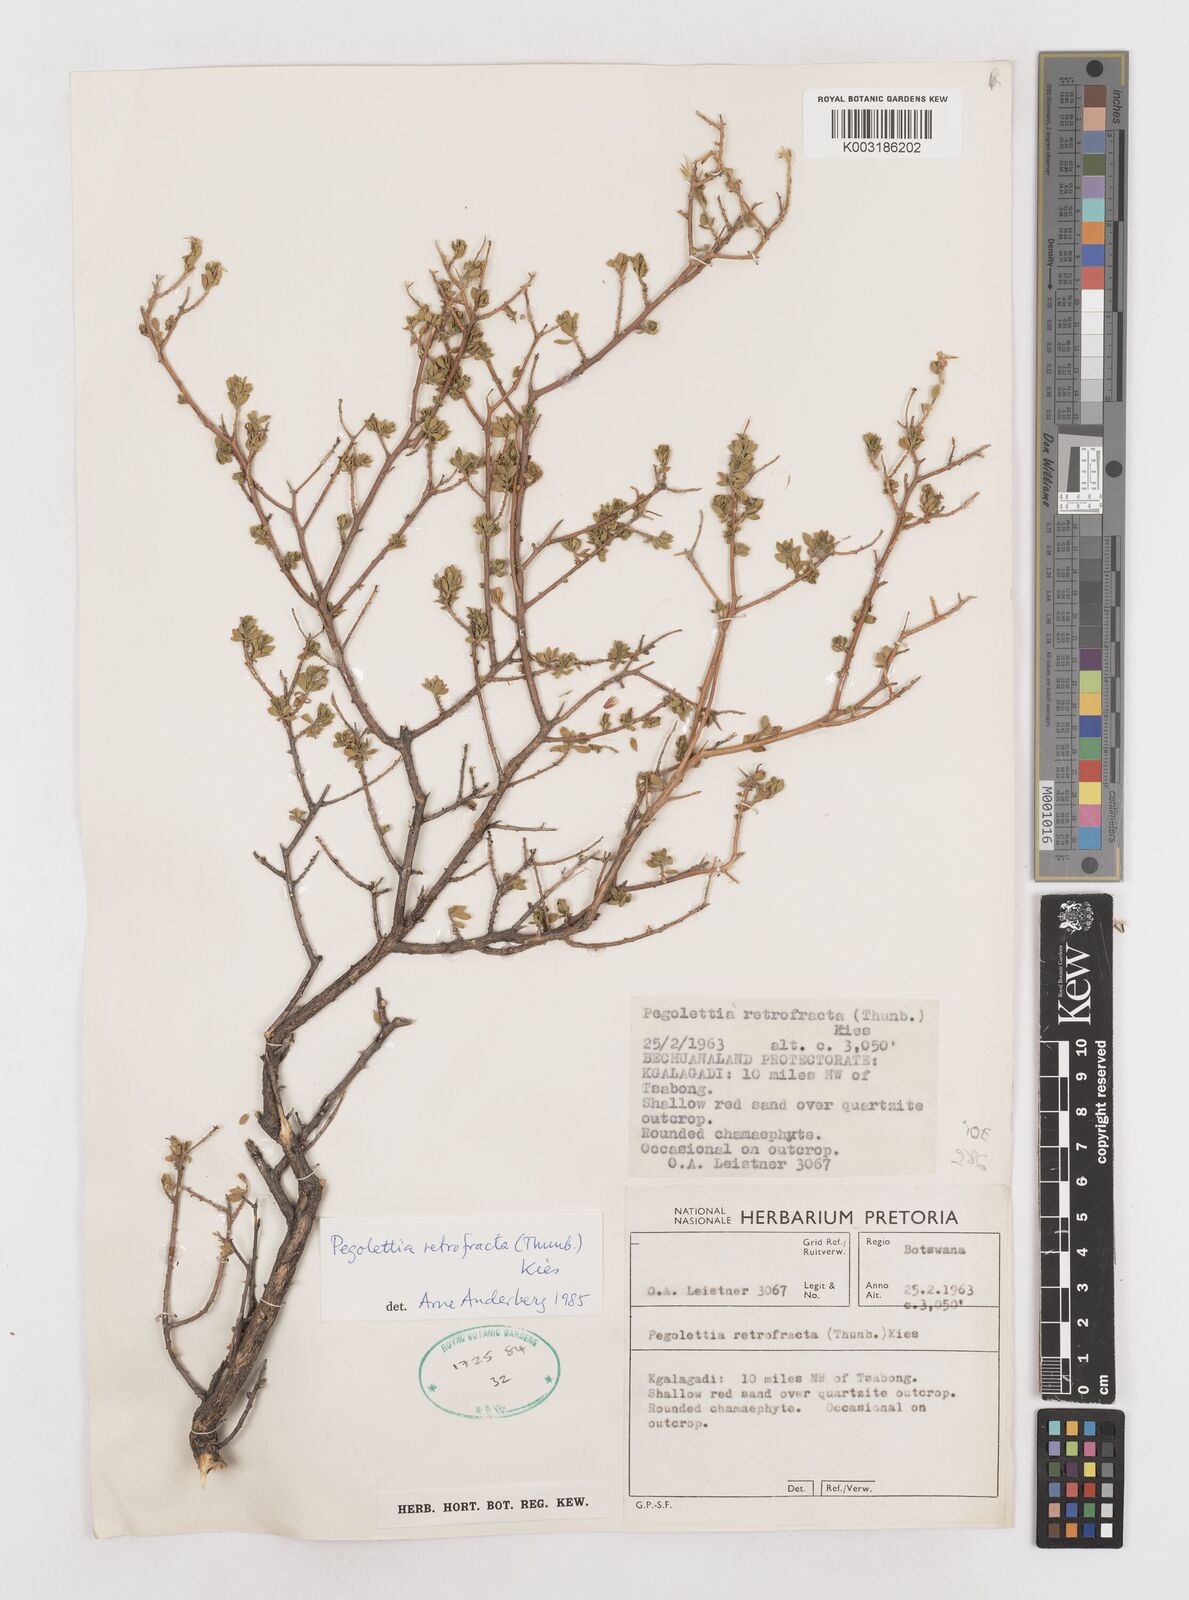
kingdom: Plantae
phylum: Tracheophyta
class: Magnoliopsida
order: Asterales
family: Asteraceae
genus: Pegolettia
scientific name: Pegolettia retrofracta
